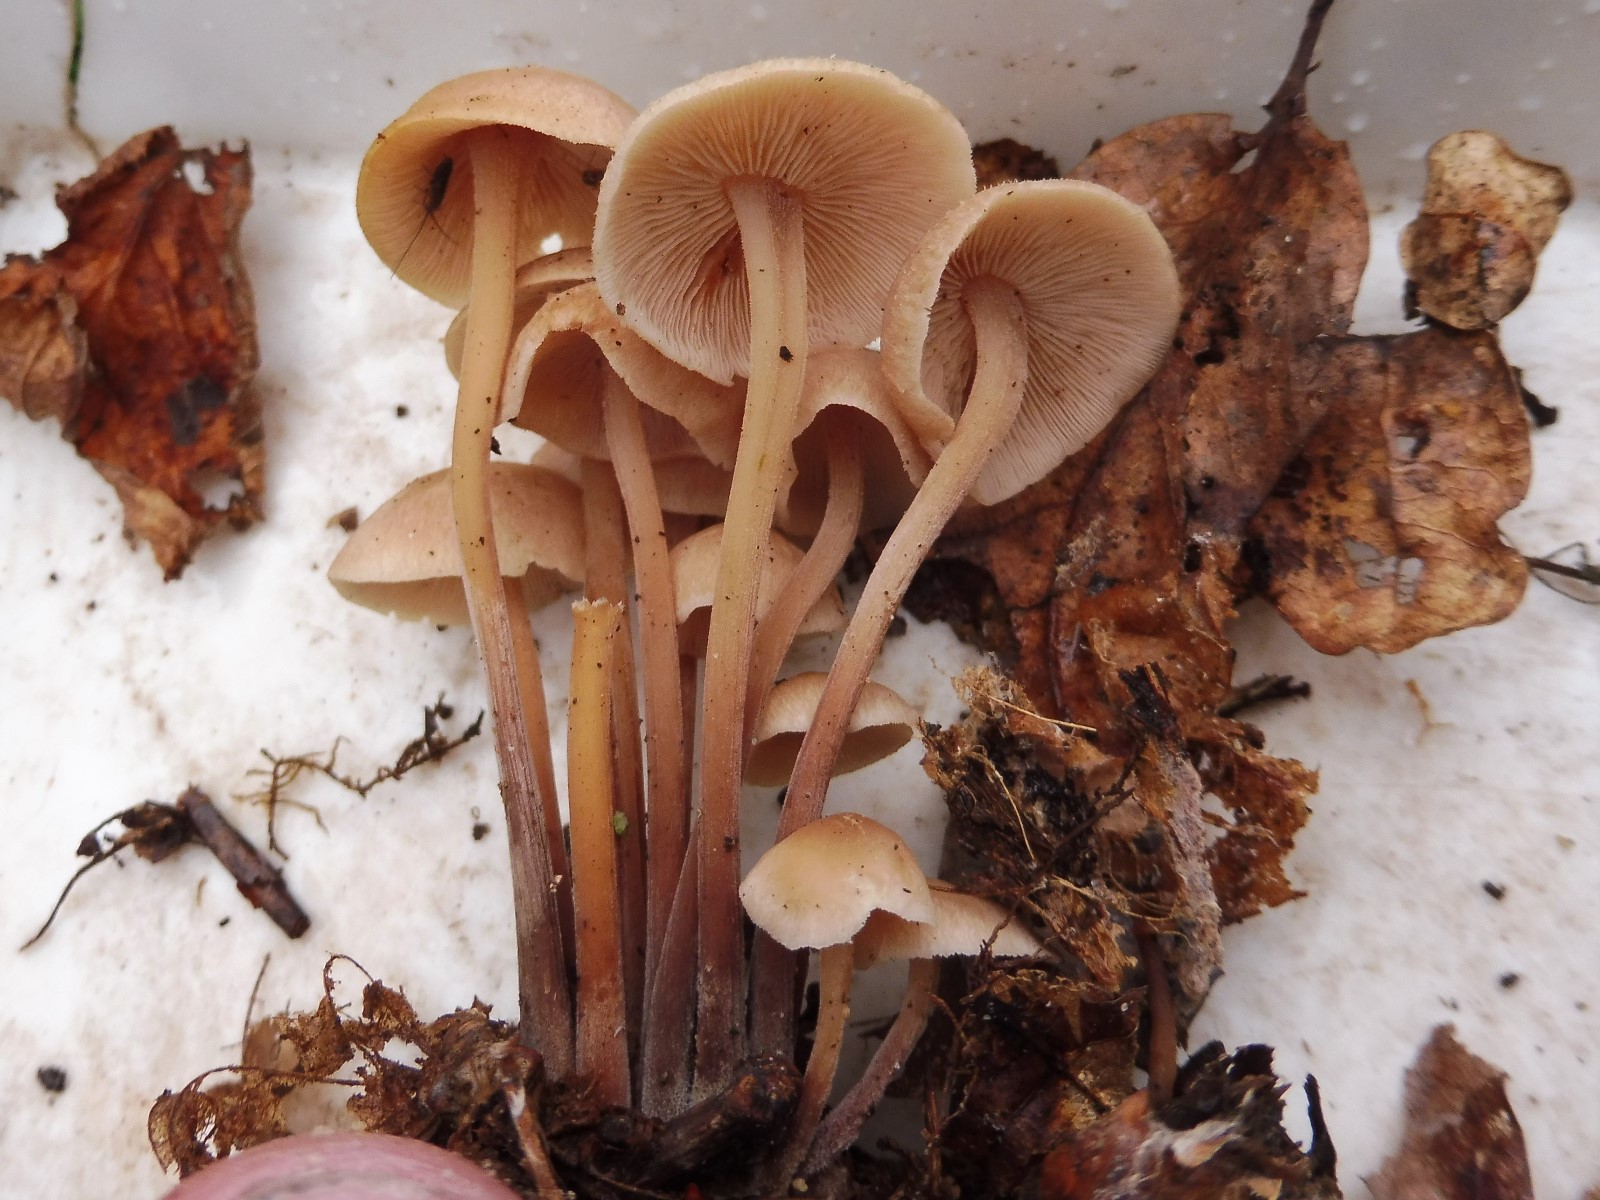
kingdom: Fungi
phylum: Basidiomycota
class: Agaricomycetes
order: Agaricales
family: Omphalotaceae
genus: Collybiopsis
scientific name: Collybiopsis confluens
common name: knippe-fladhat
